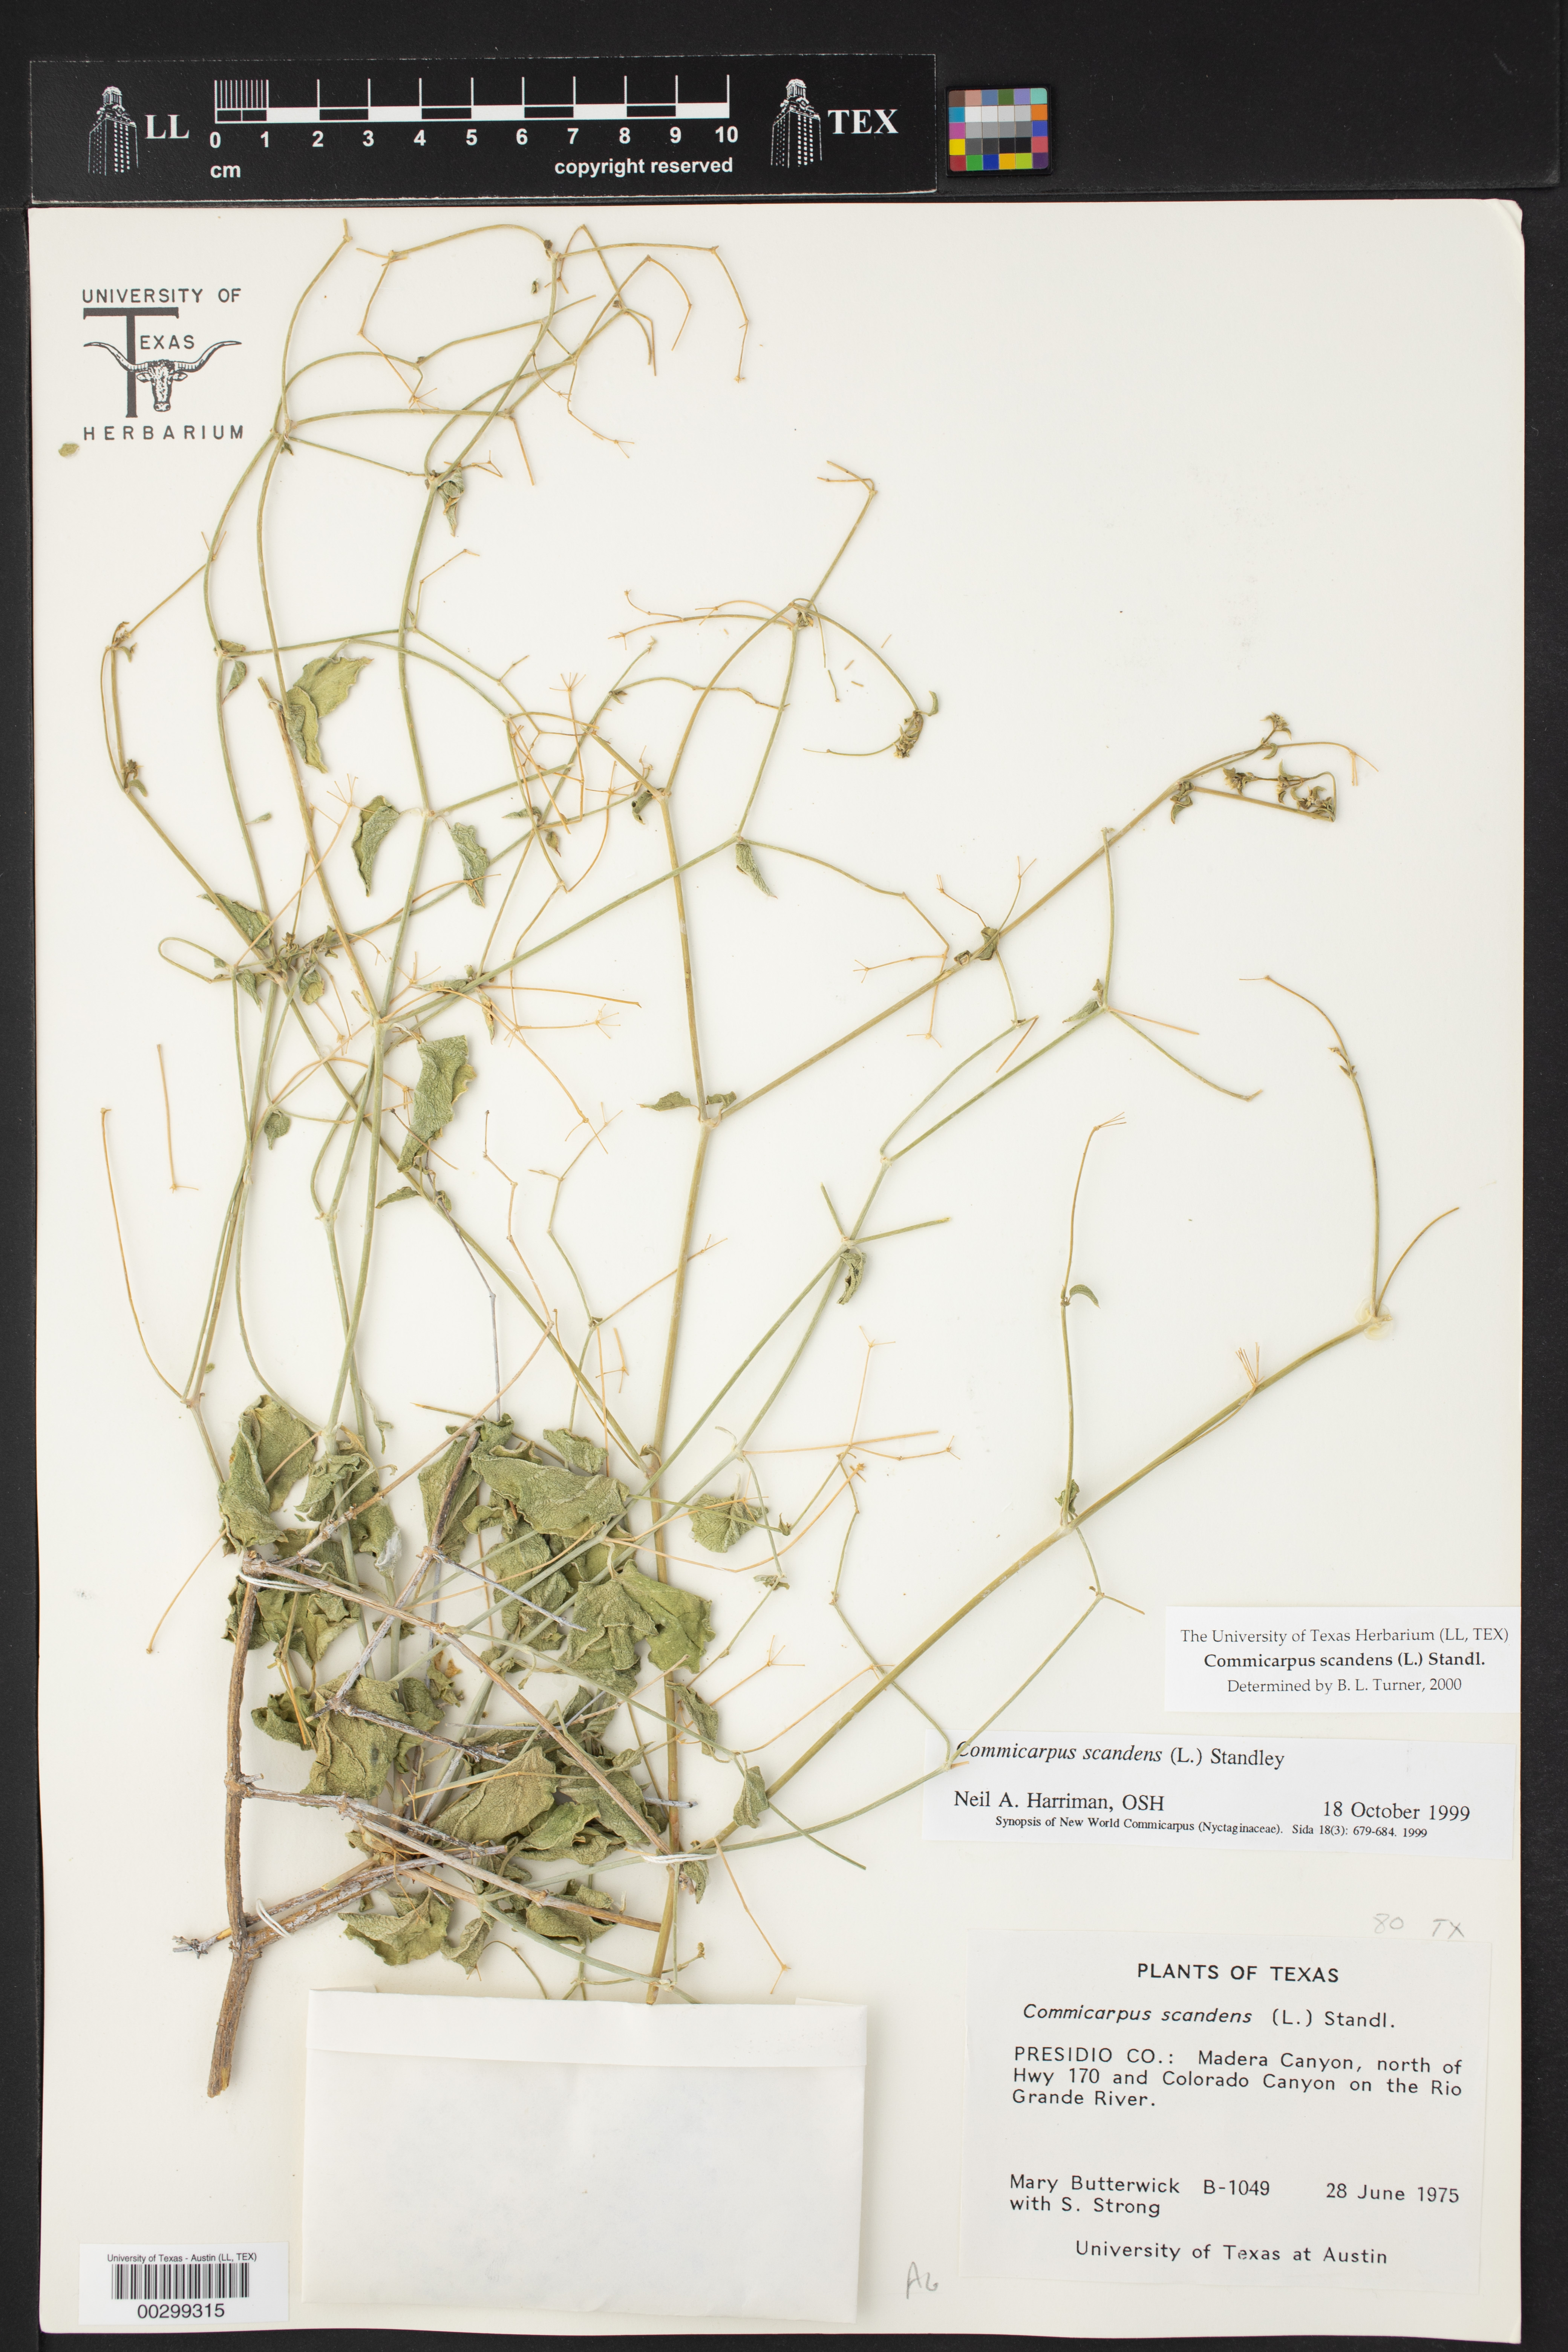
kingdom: Plantae
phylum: Tracheophyta
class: Magnoliopsida
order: Caryophyllales
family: Nyctaginaceae
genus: Commicarpus
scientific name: Commicarpus scandens
